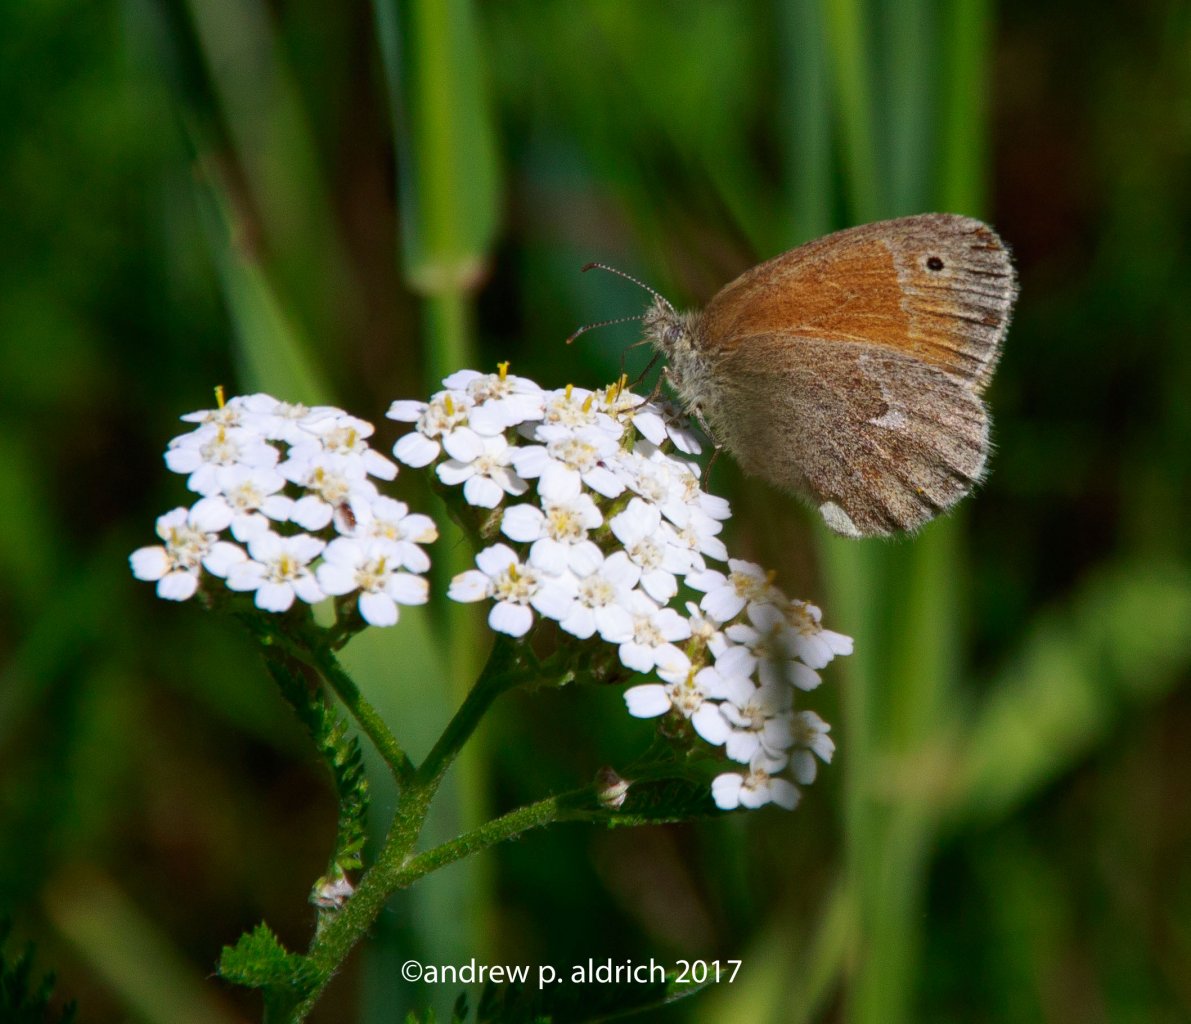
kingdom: Animalia
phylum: Arthropoda
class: Insecta
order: Lepidoptera
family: Nymphalidae
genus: Coenonympha
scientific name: Coenonympha tullia
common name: Large Heath
